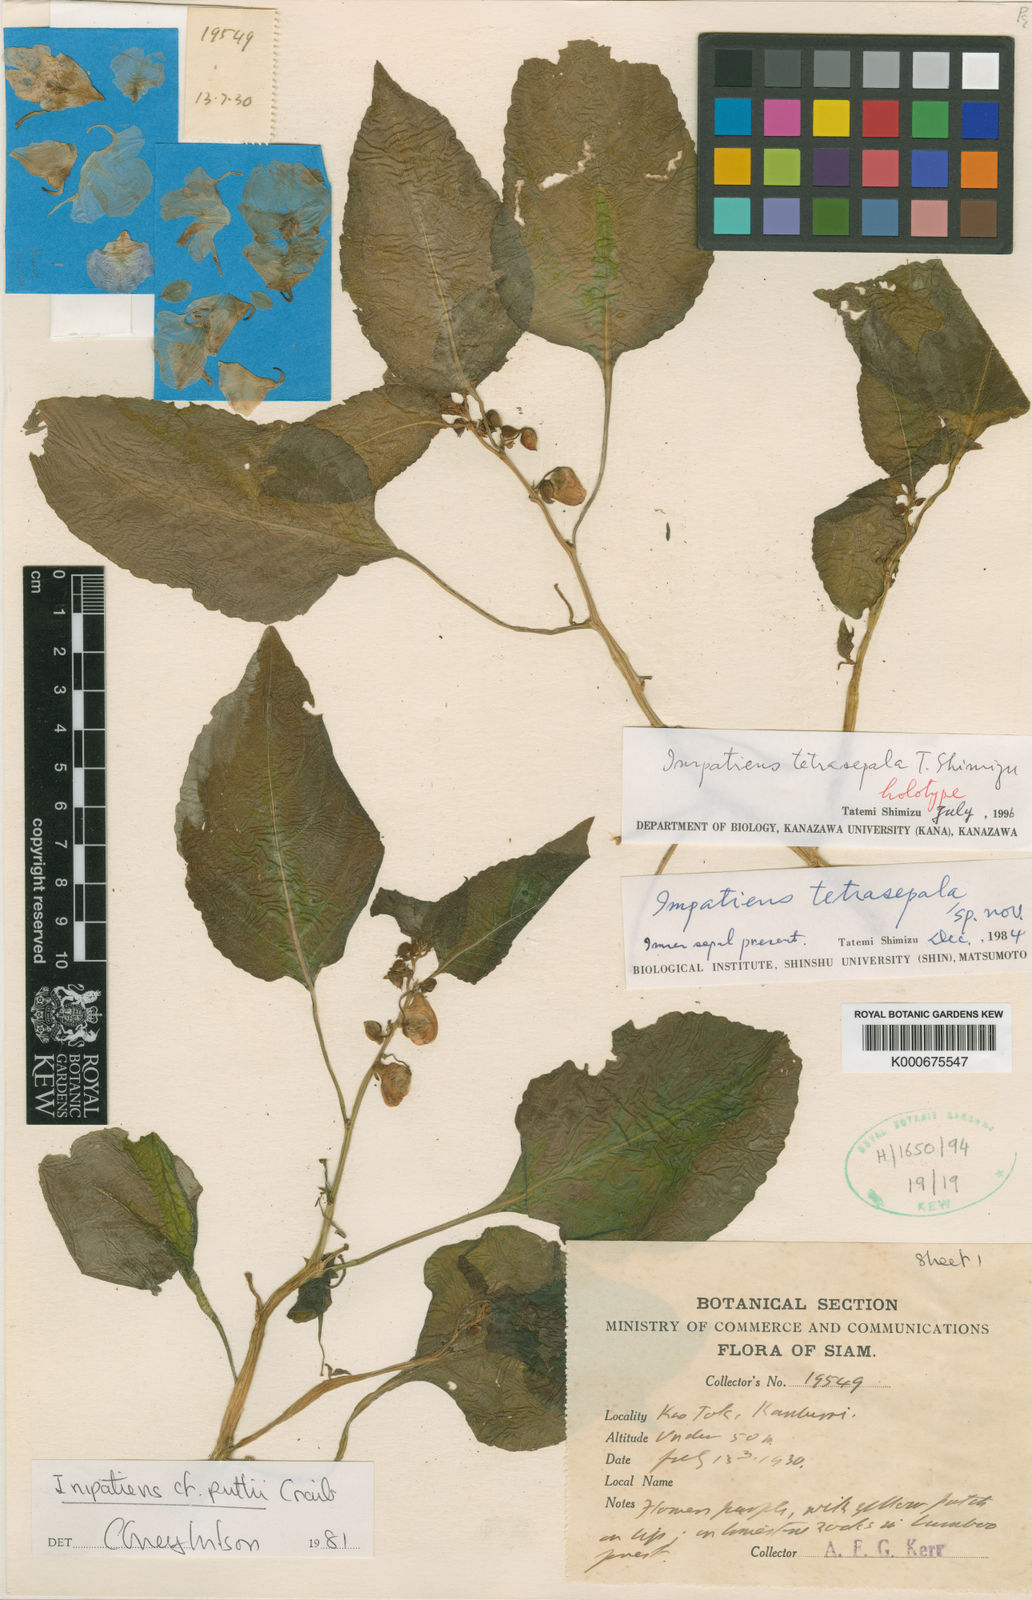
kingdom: Plantae
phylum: Tracheophyta
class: Magnoliopsida
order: Ericales
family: Balsaminaceae
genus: Impatiens
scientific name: Impatiens
